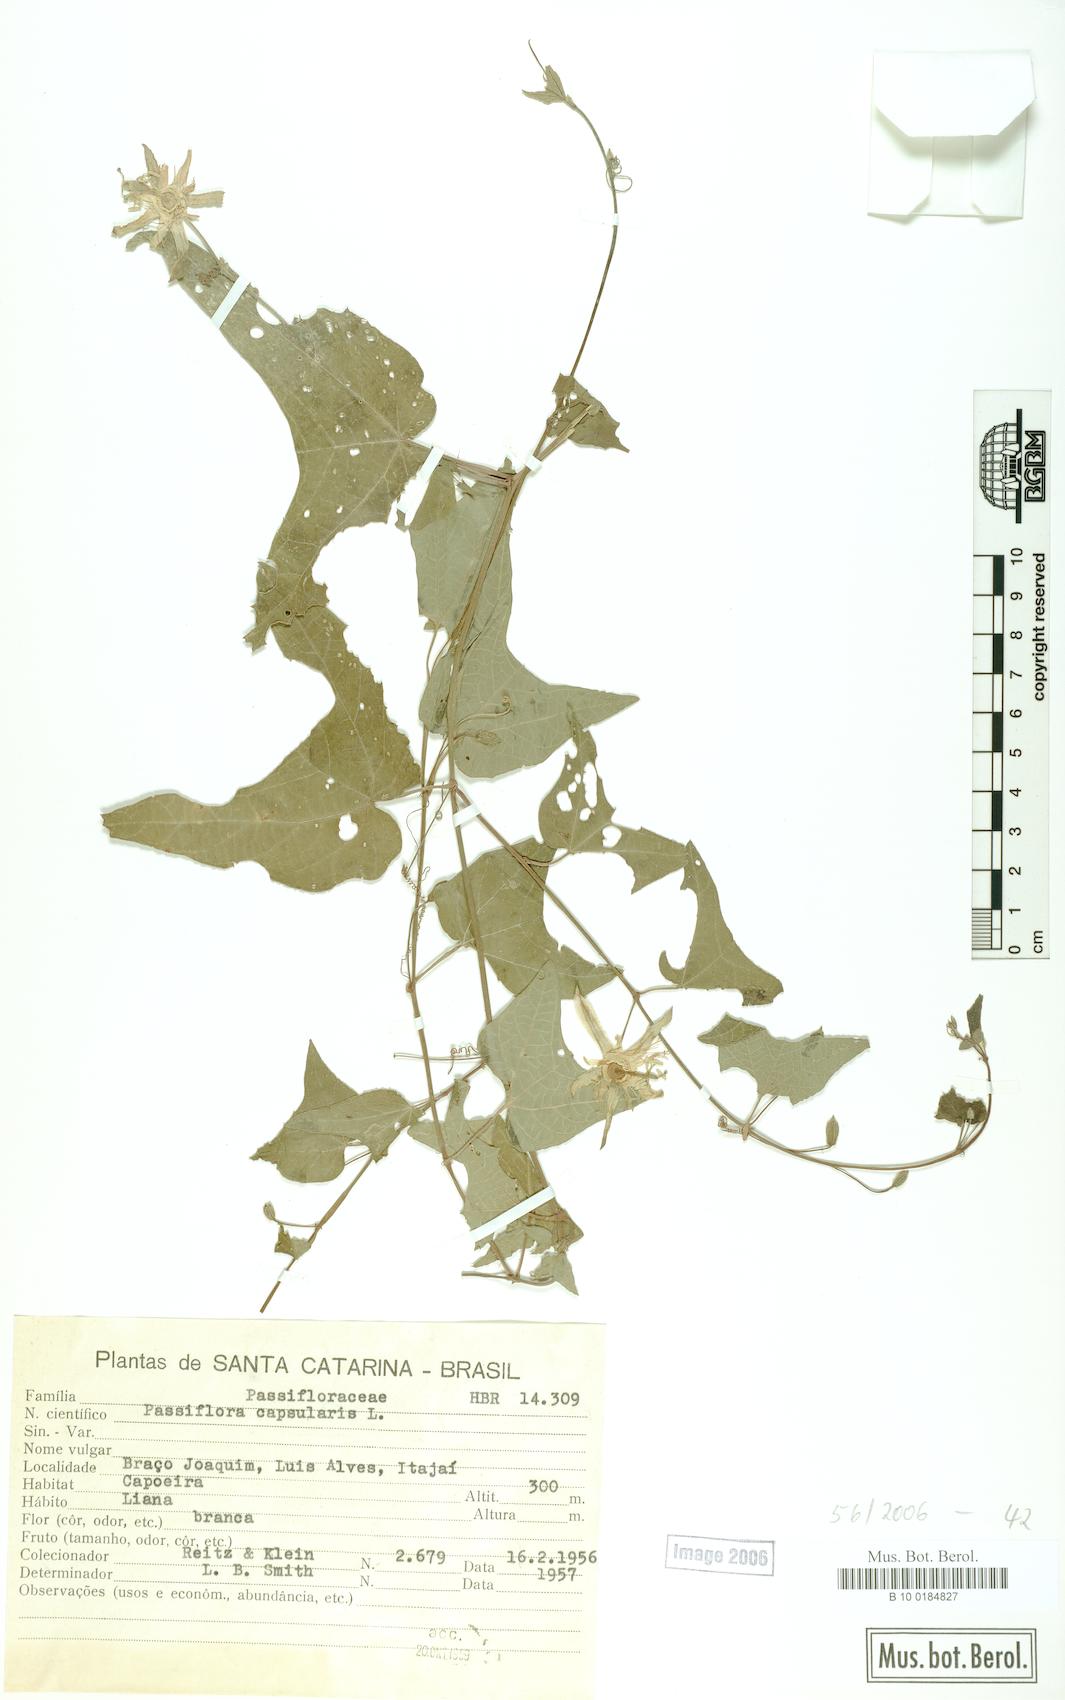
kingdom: Plantae
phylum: Tracheophyta
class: Magnoliopsida
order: Malpighiales
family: Passifloraceae
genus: Passiflora
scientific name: Passiflora capsularis
